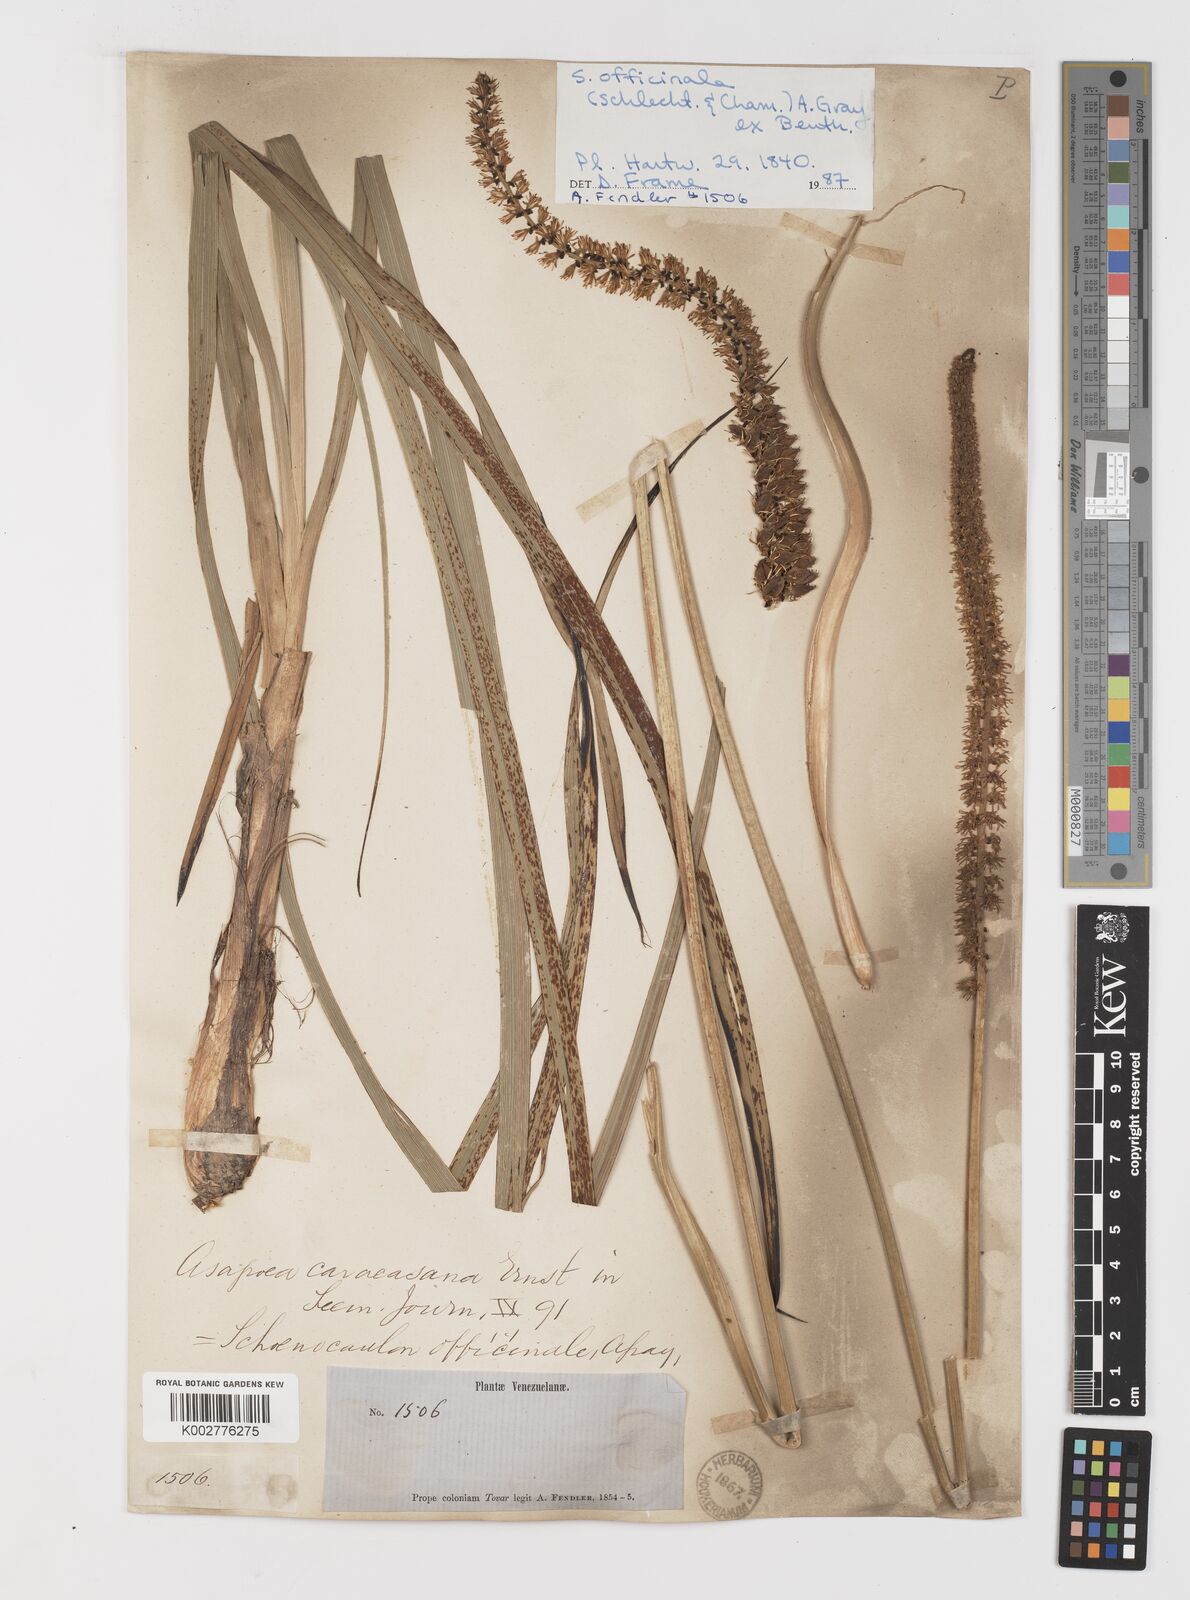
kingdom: Plantae
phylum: Tracheophyta
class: Liliopsida
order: Liliales
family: Melanthiaceae
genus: Schoenocaulon
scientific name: Schoenocaulon officinale
